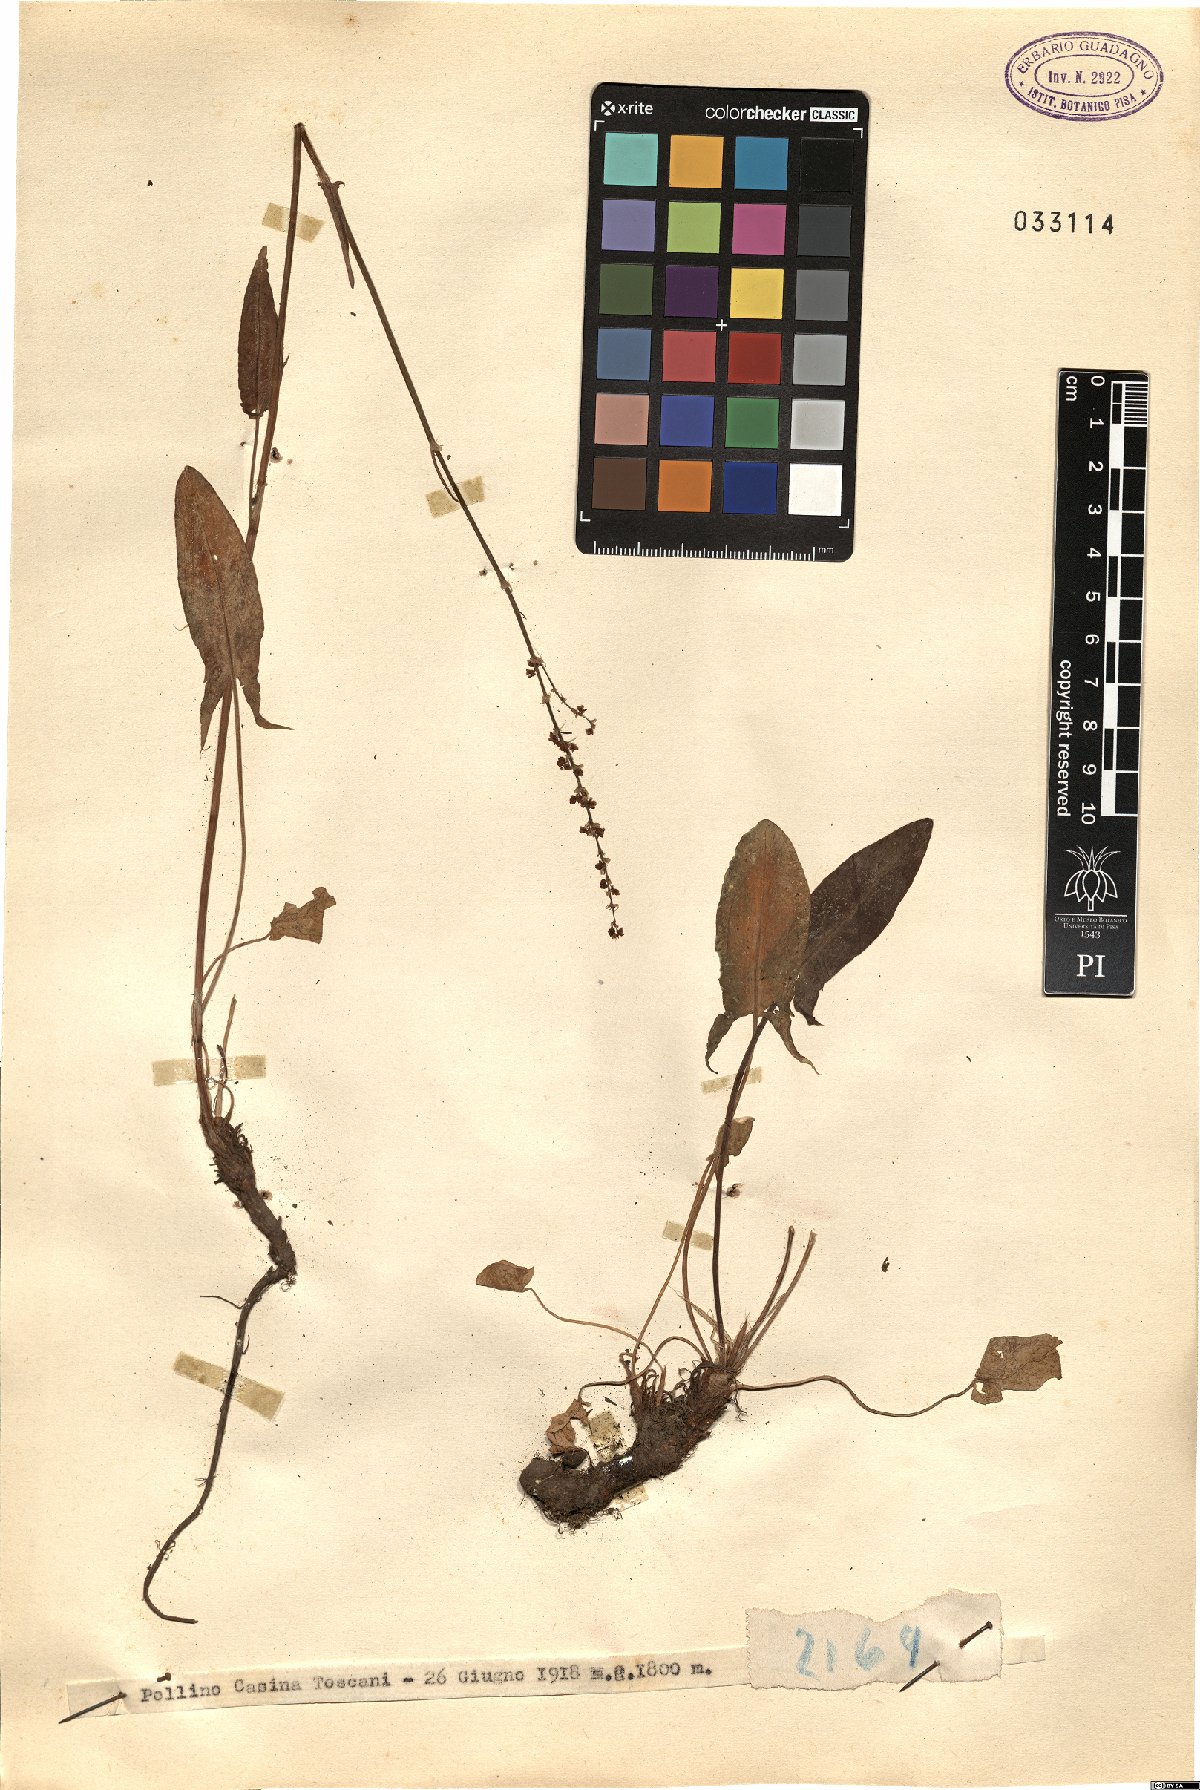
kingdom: Plantae
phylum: Tracheophyta
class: Magnoliopsida
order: Caryophyllales
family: Polygonaceae
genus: Rumex
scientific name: Rumex
